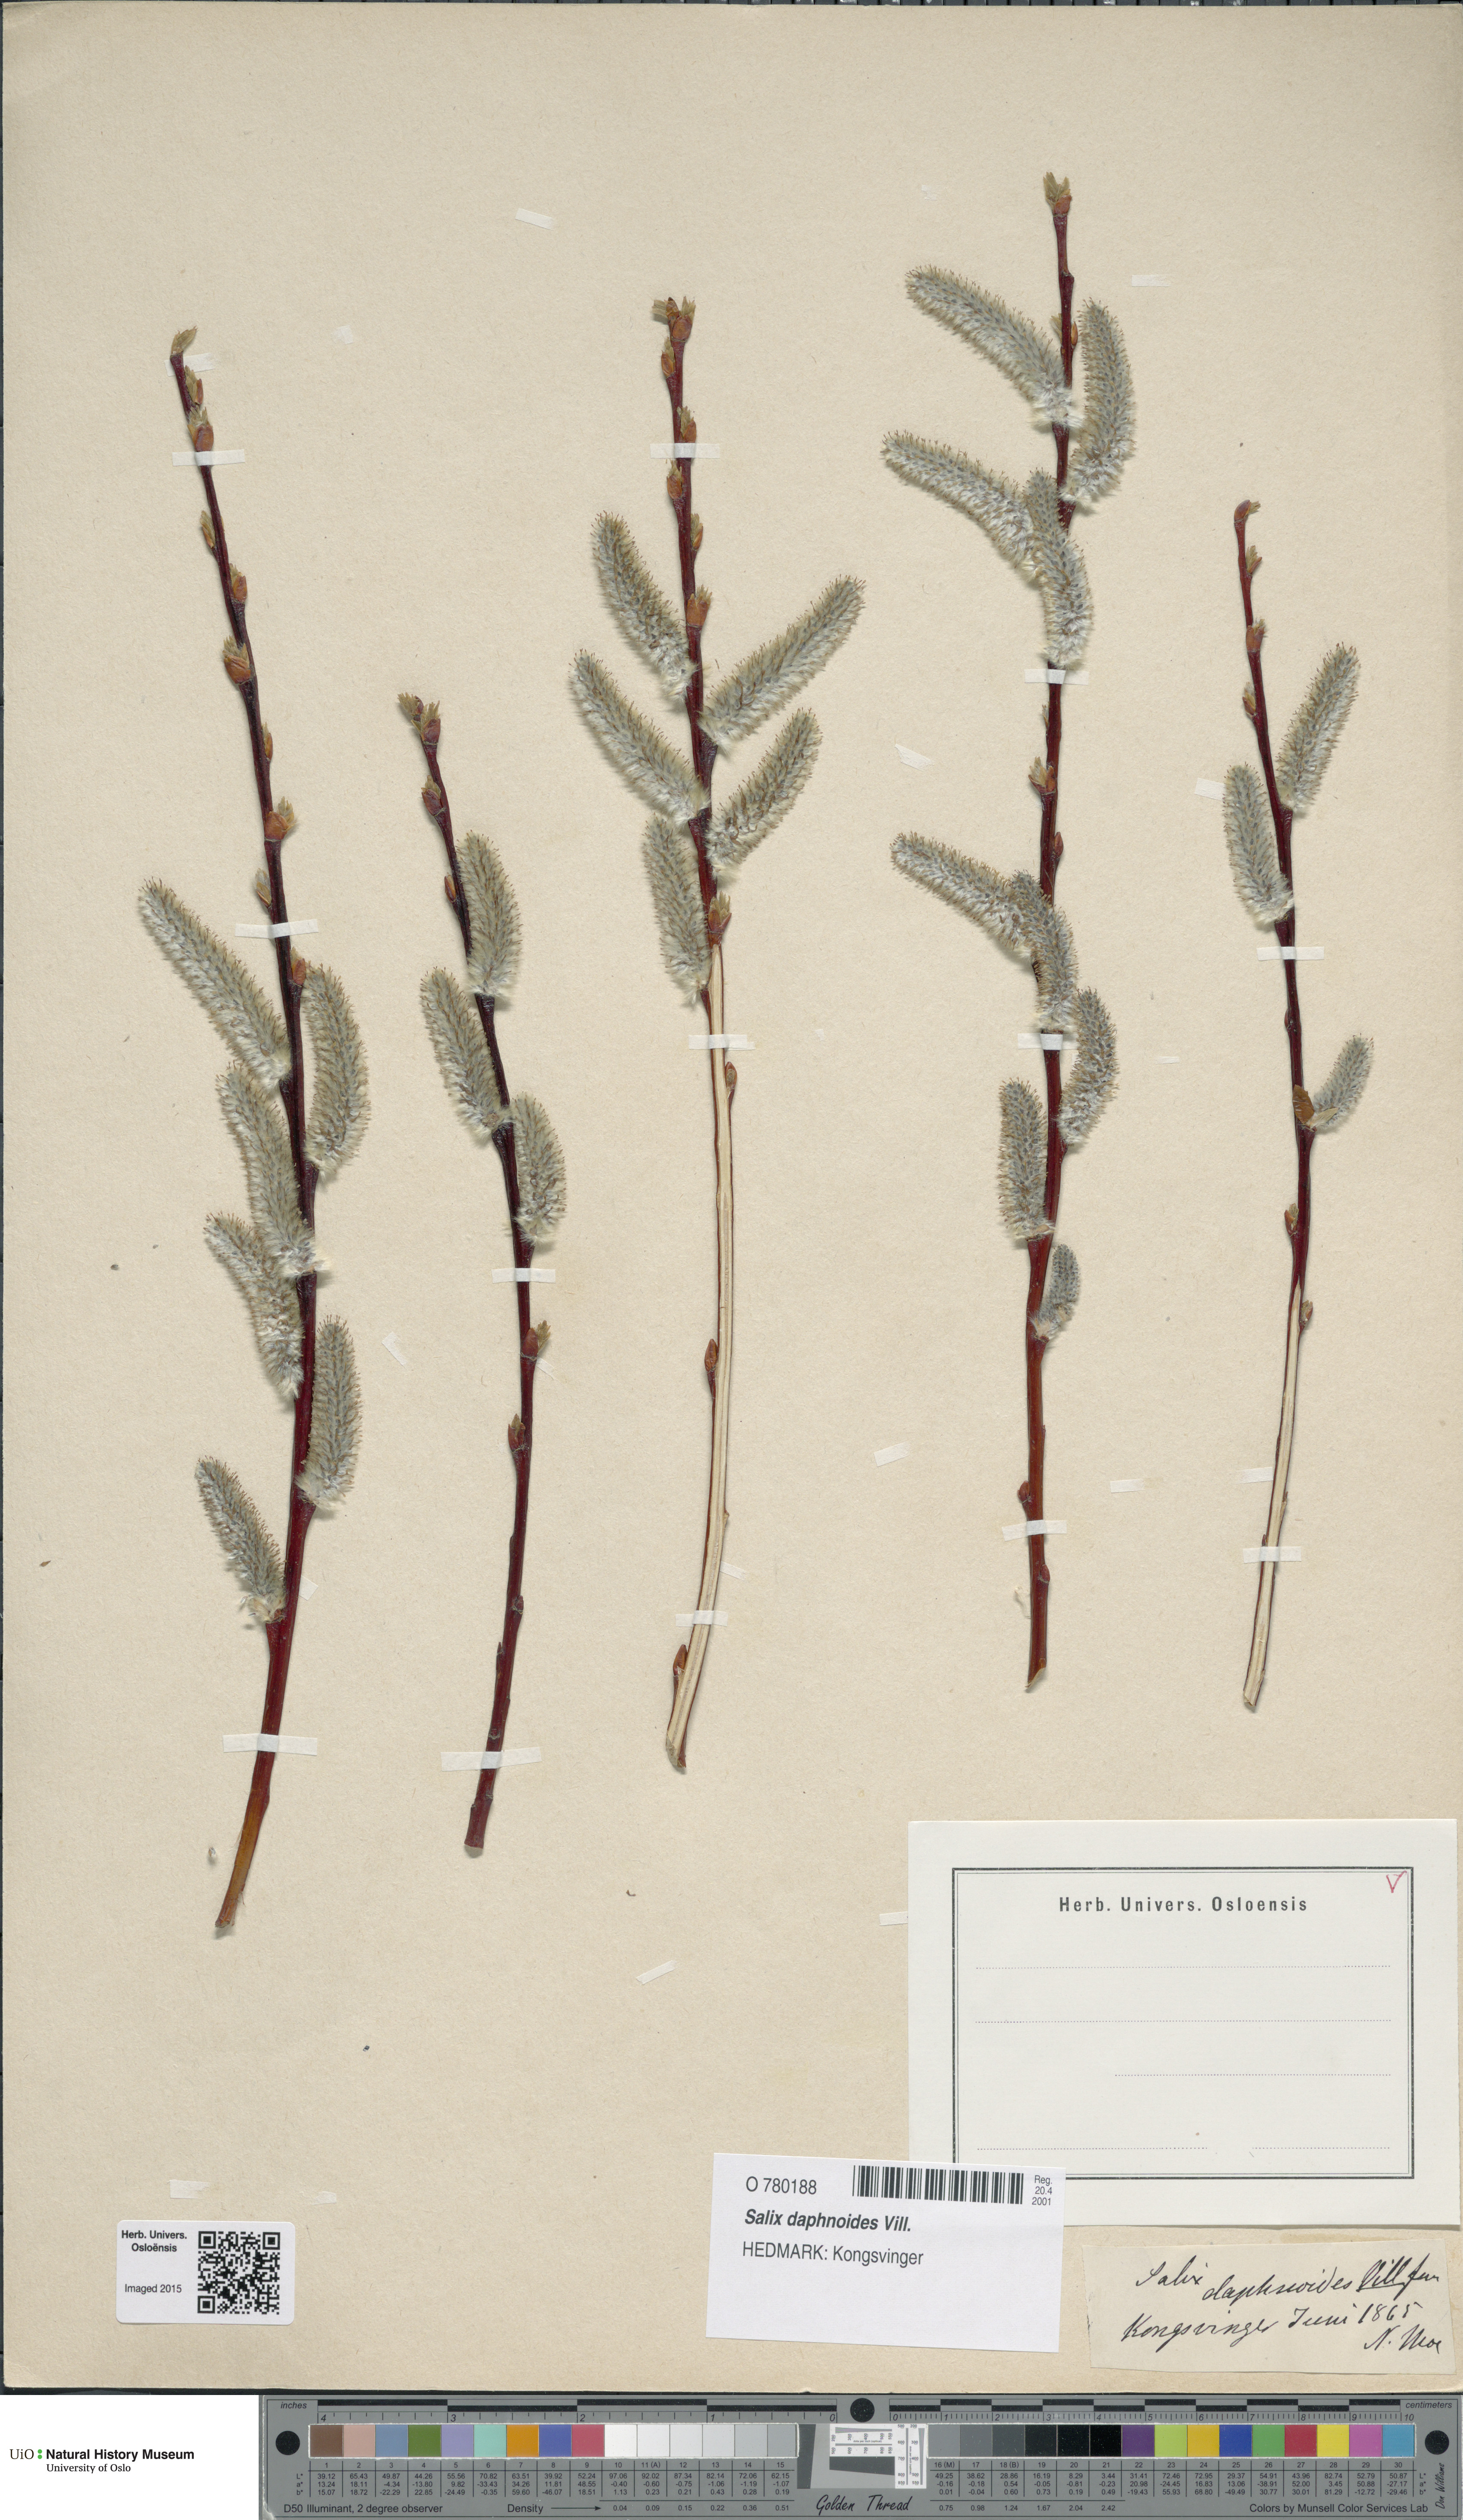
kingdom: Plantae
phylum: Tracheophyta
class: Magnoliopsida
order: Malpighiales
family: Salicaceae
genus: Salix
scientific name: Salix daphnoides
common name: European violet-willow
